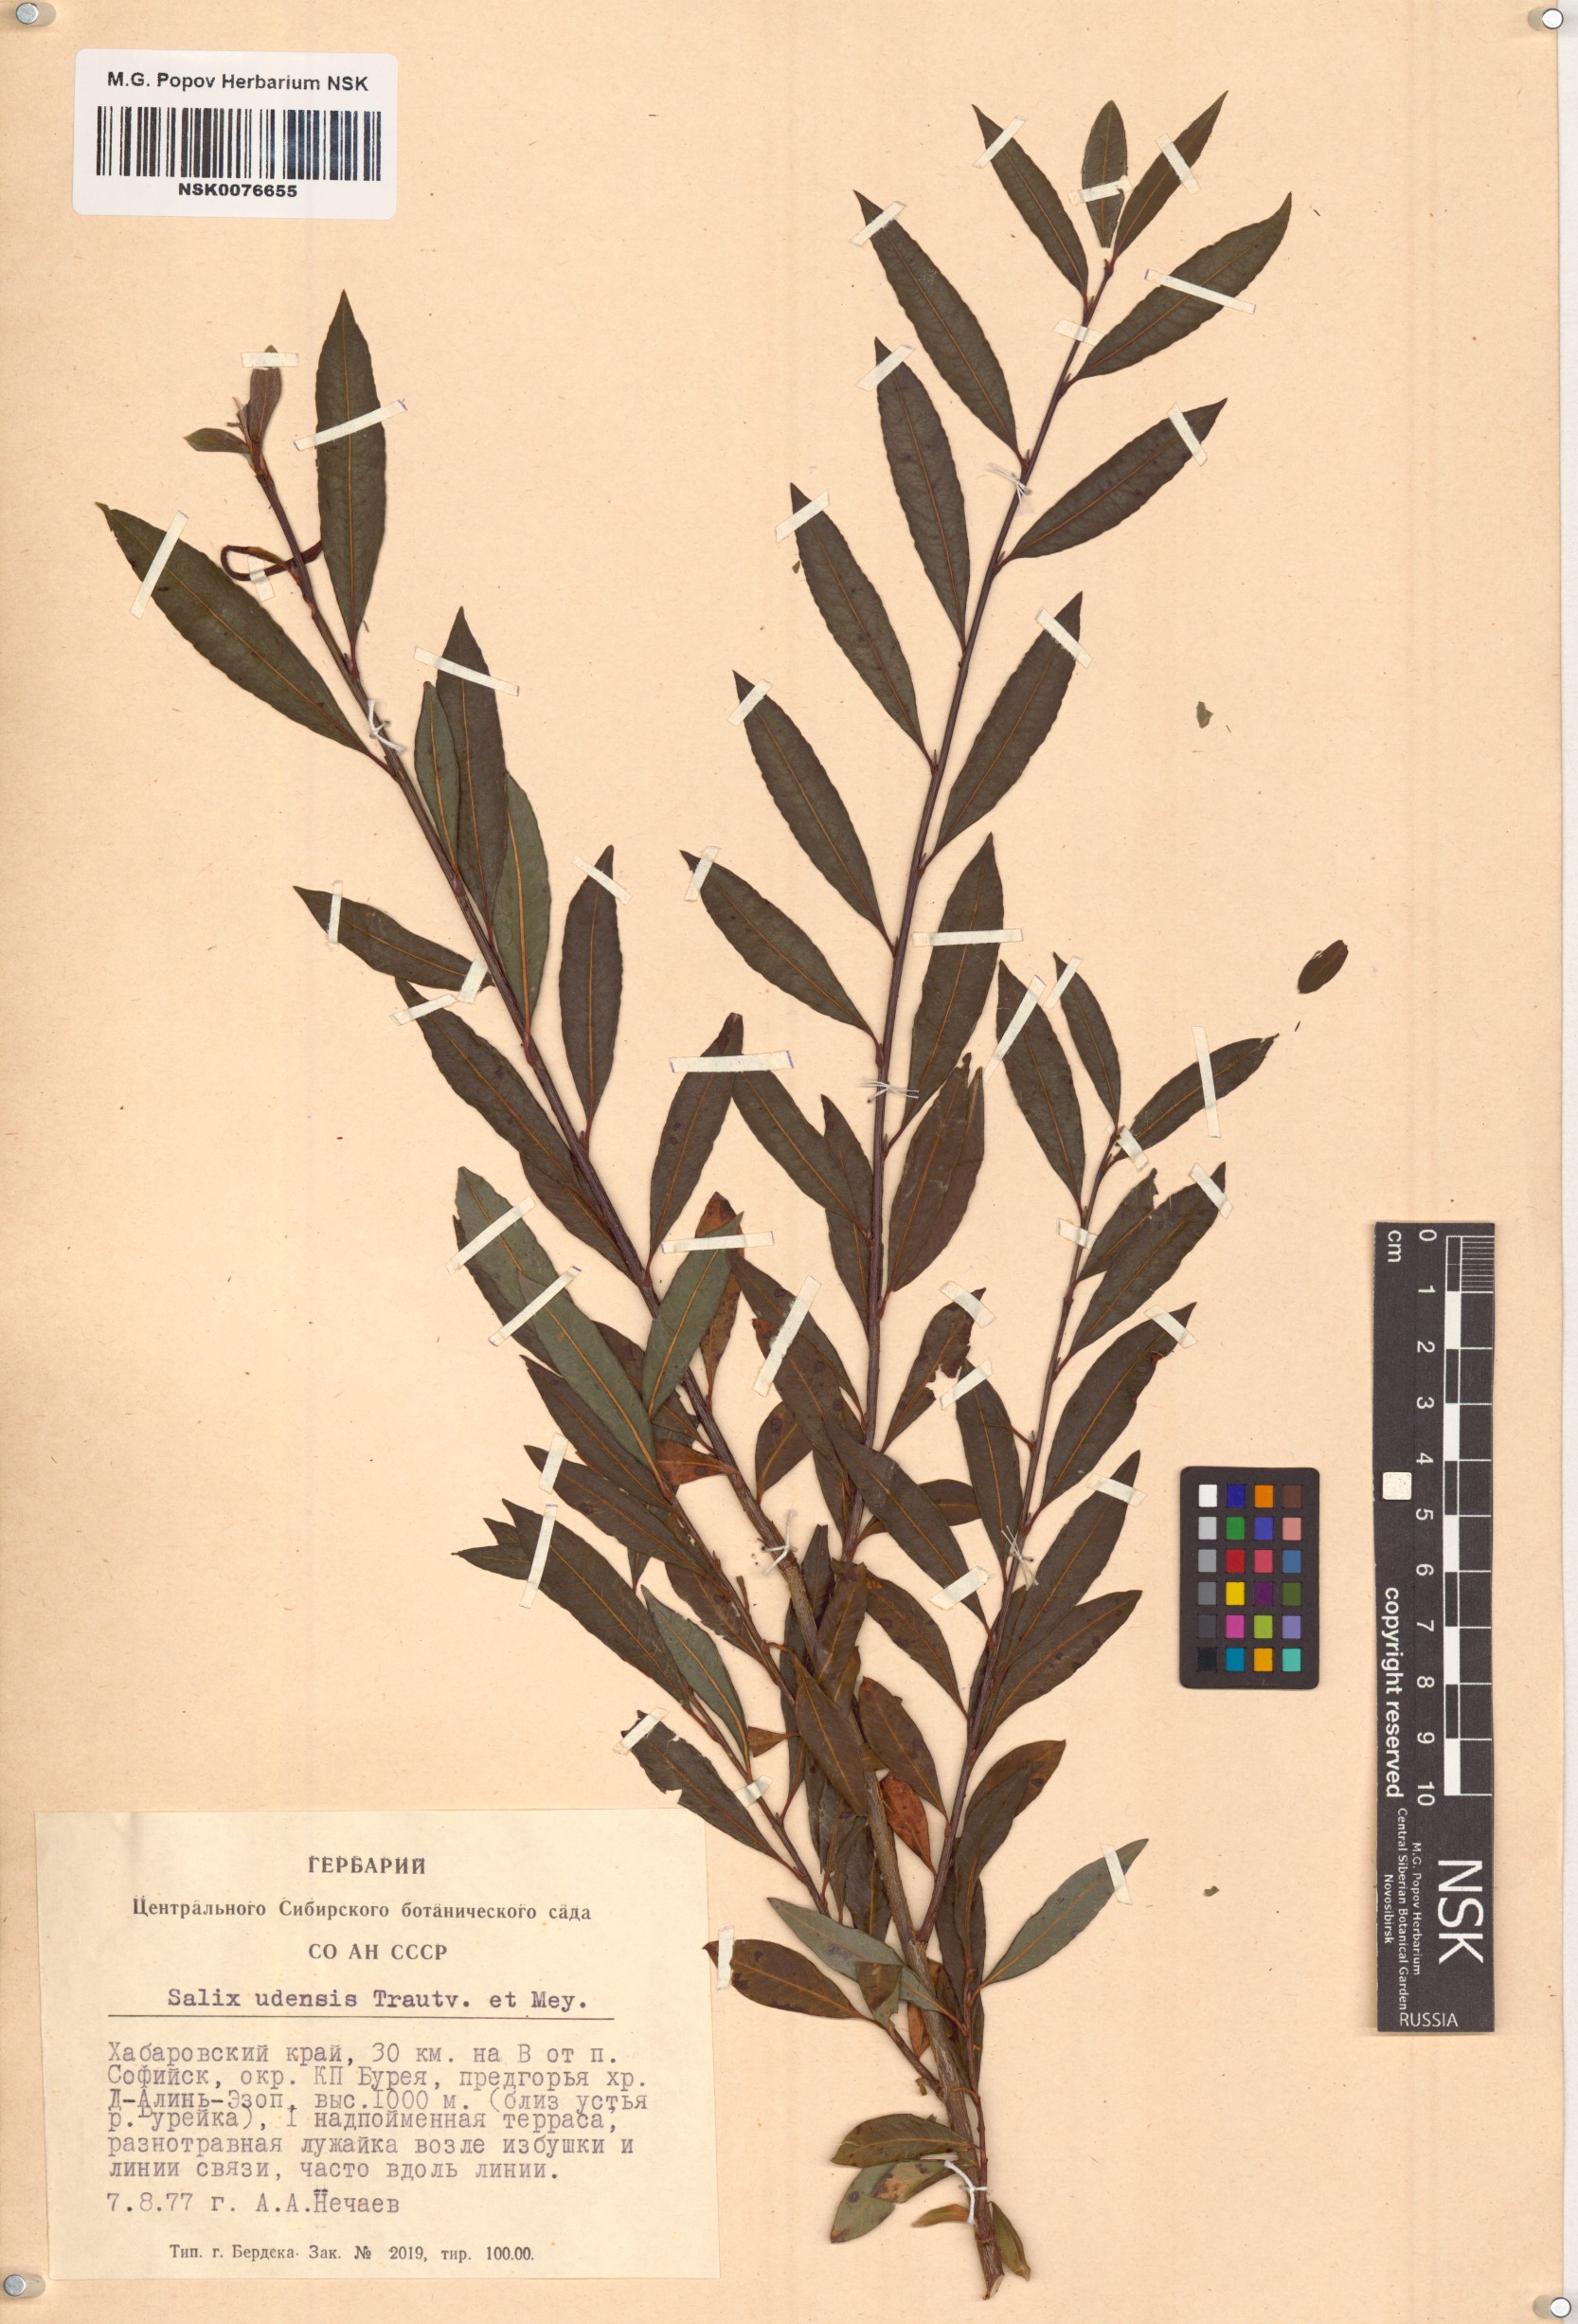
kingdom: Plantae
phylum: Tracheophyta
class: Magnoliopsida
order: Malpighiales
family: Salicaceae
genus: Salix
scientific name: Salix udensis
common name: Sachalin willow
